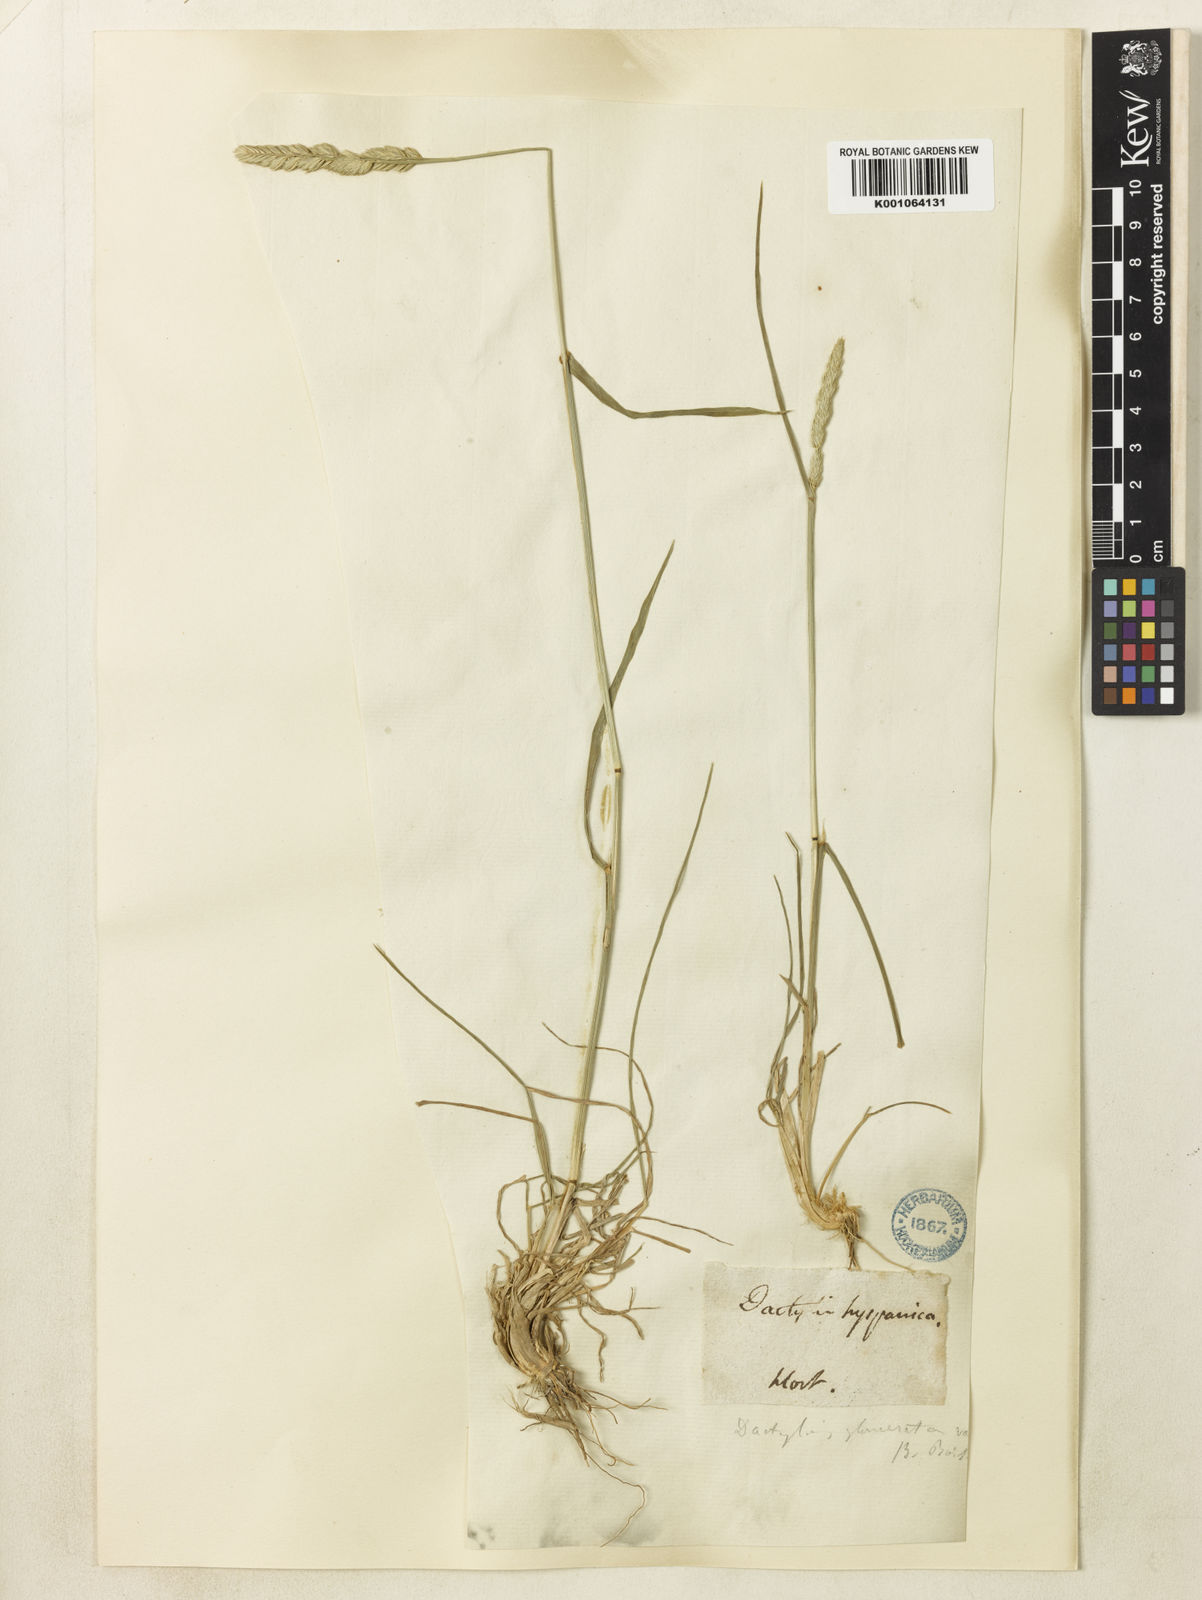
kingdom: Plantae
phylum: Tracheophyta
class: Liliopsida
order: Poales
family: Poaceae
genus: Dactylis
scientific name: Dactylis glomerata
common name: Orchardgrass
